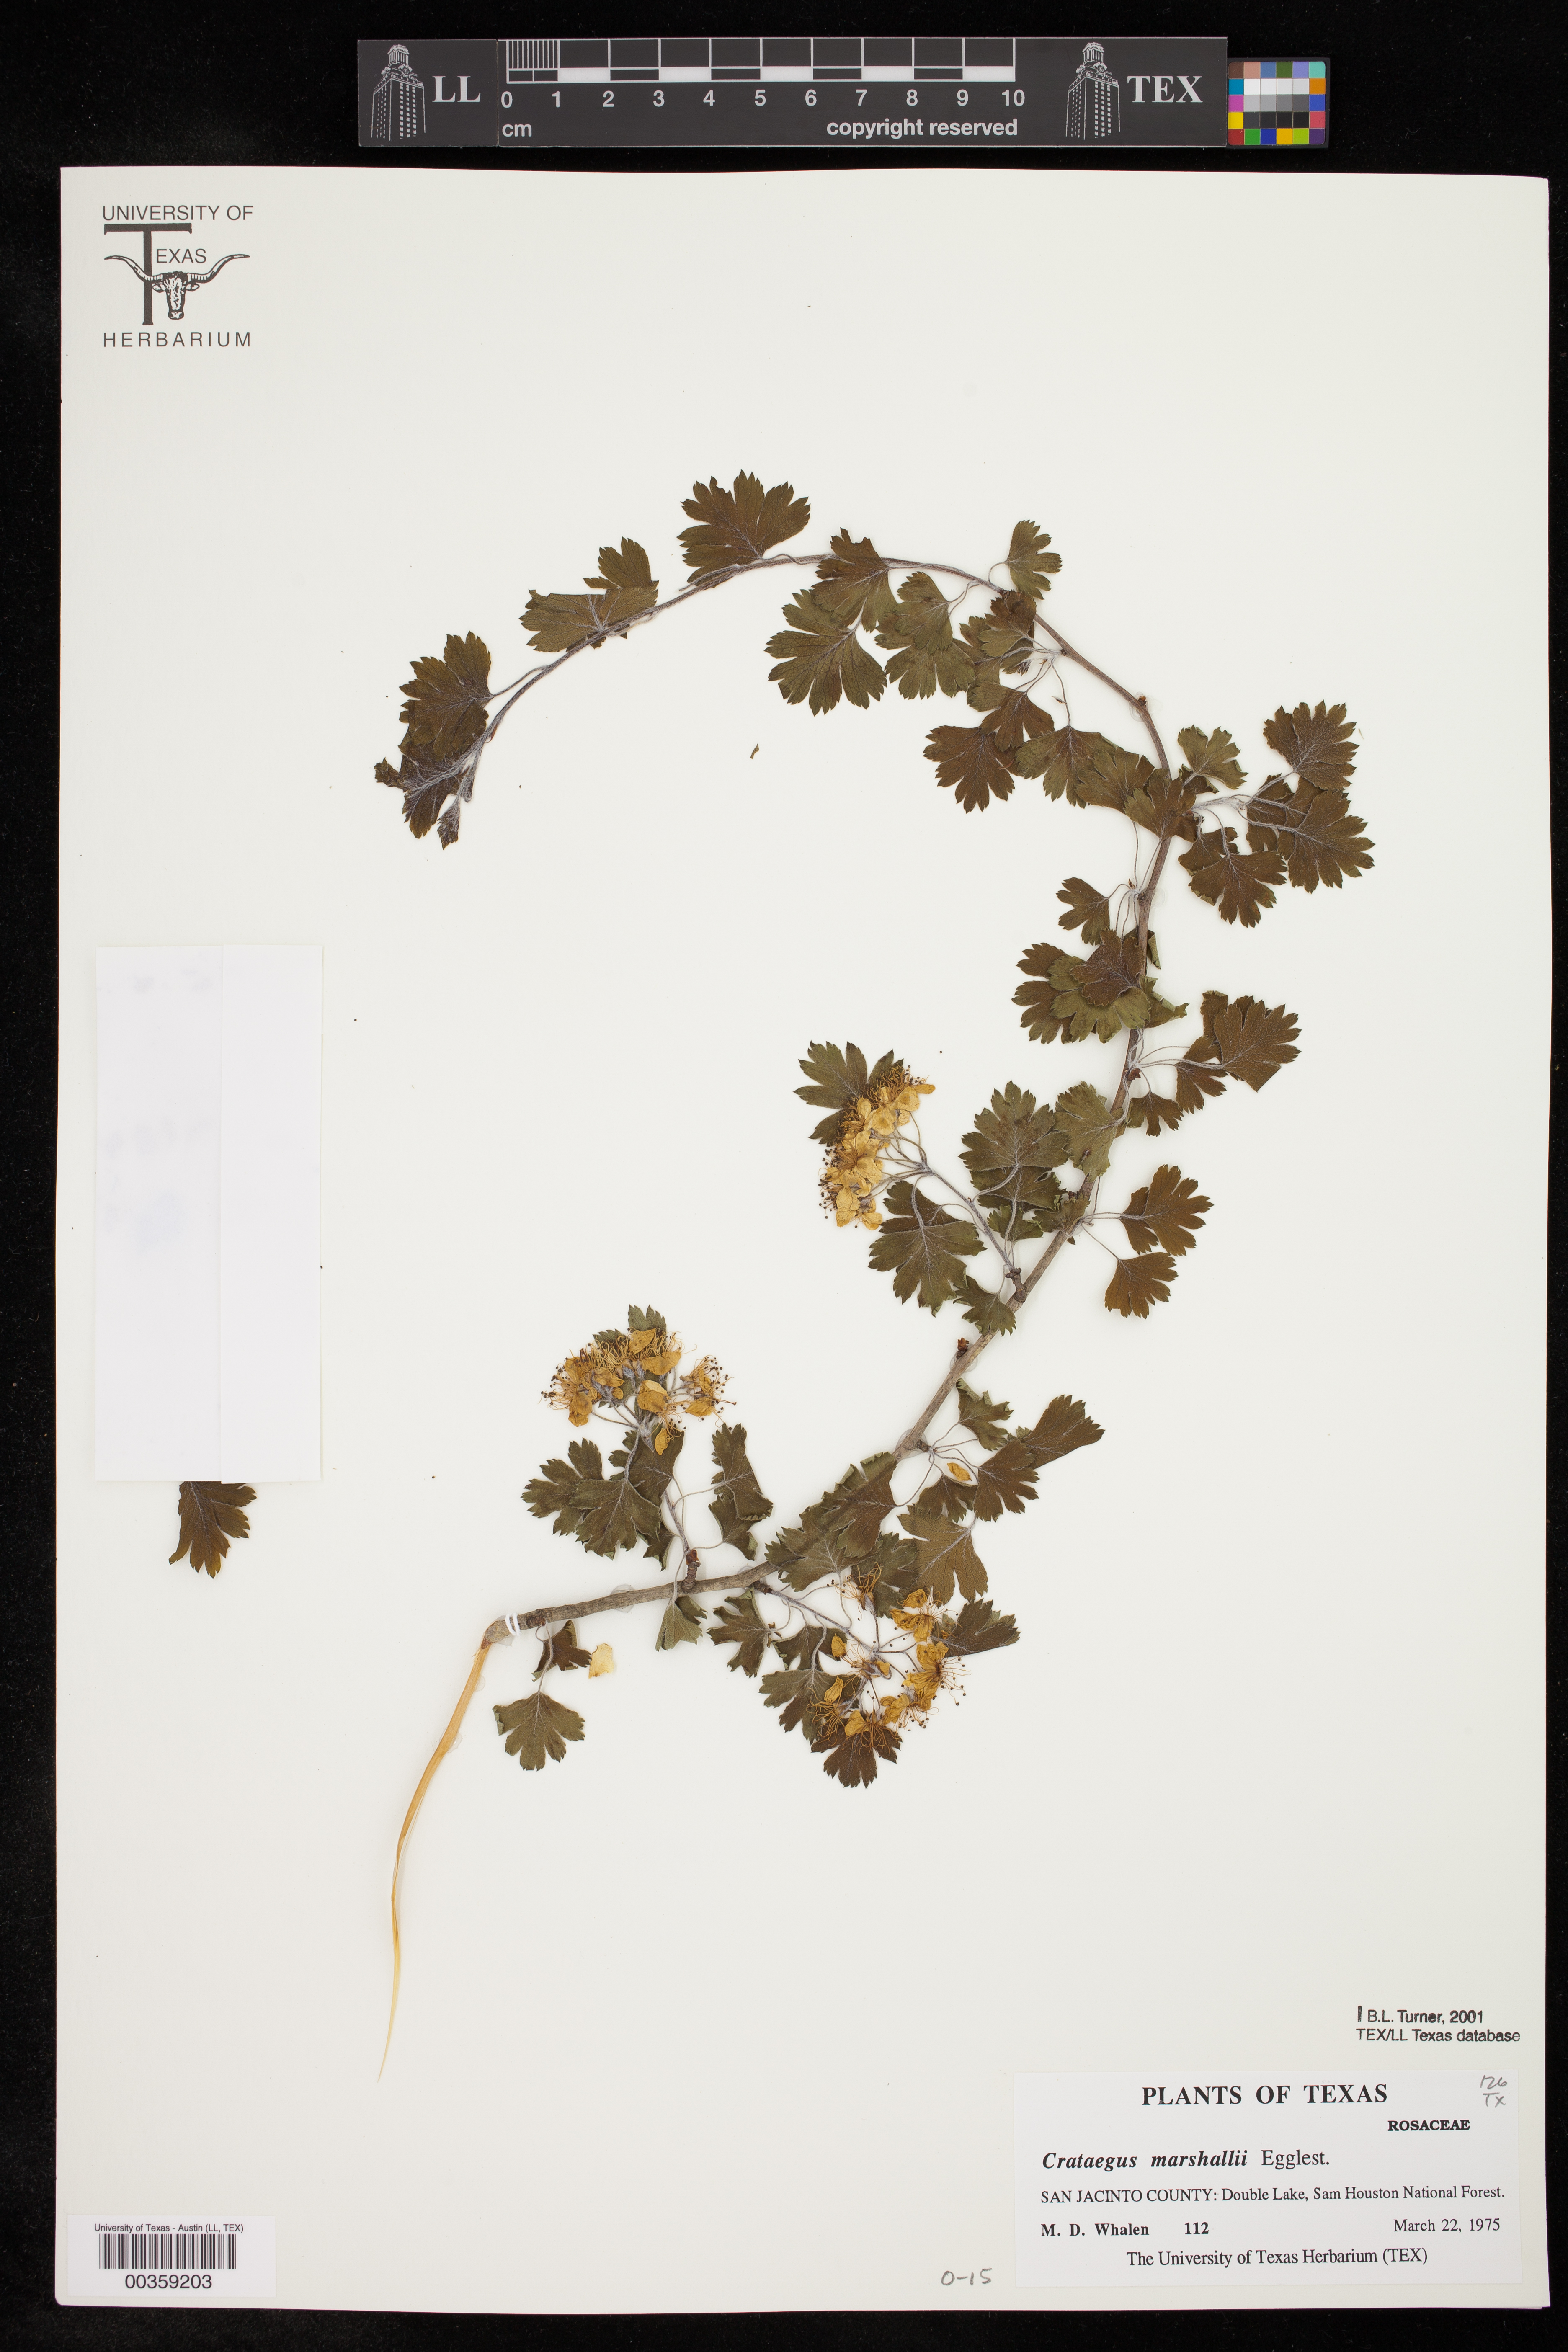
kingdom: Plantae
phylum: Tracheophyta
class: Magnoliopsida
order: Rosales
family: Rosaceae
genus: Crataegus
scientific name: Crataegus marshallii
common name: Parsley-hawthorn
